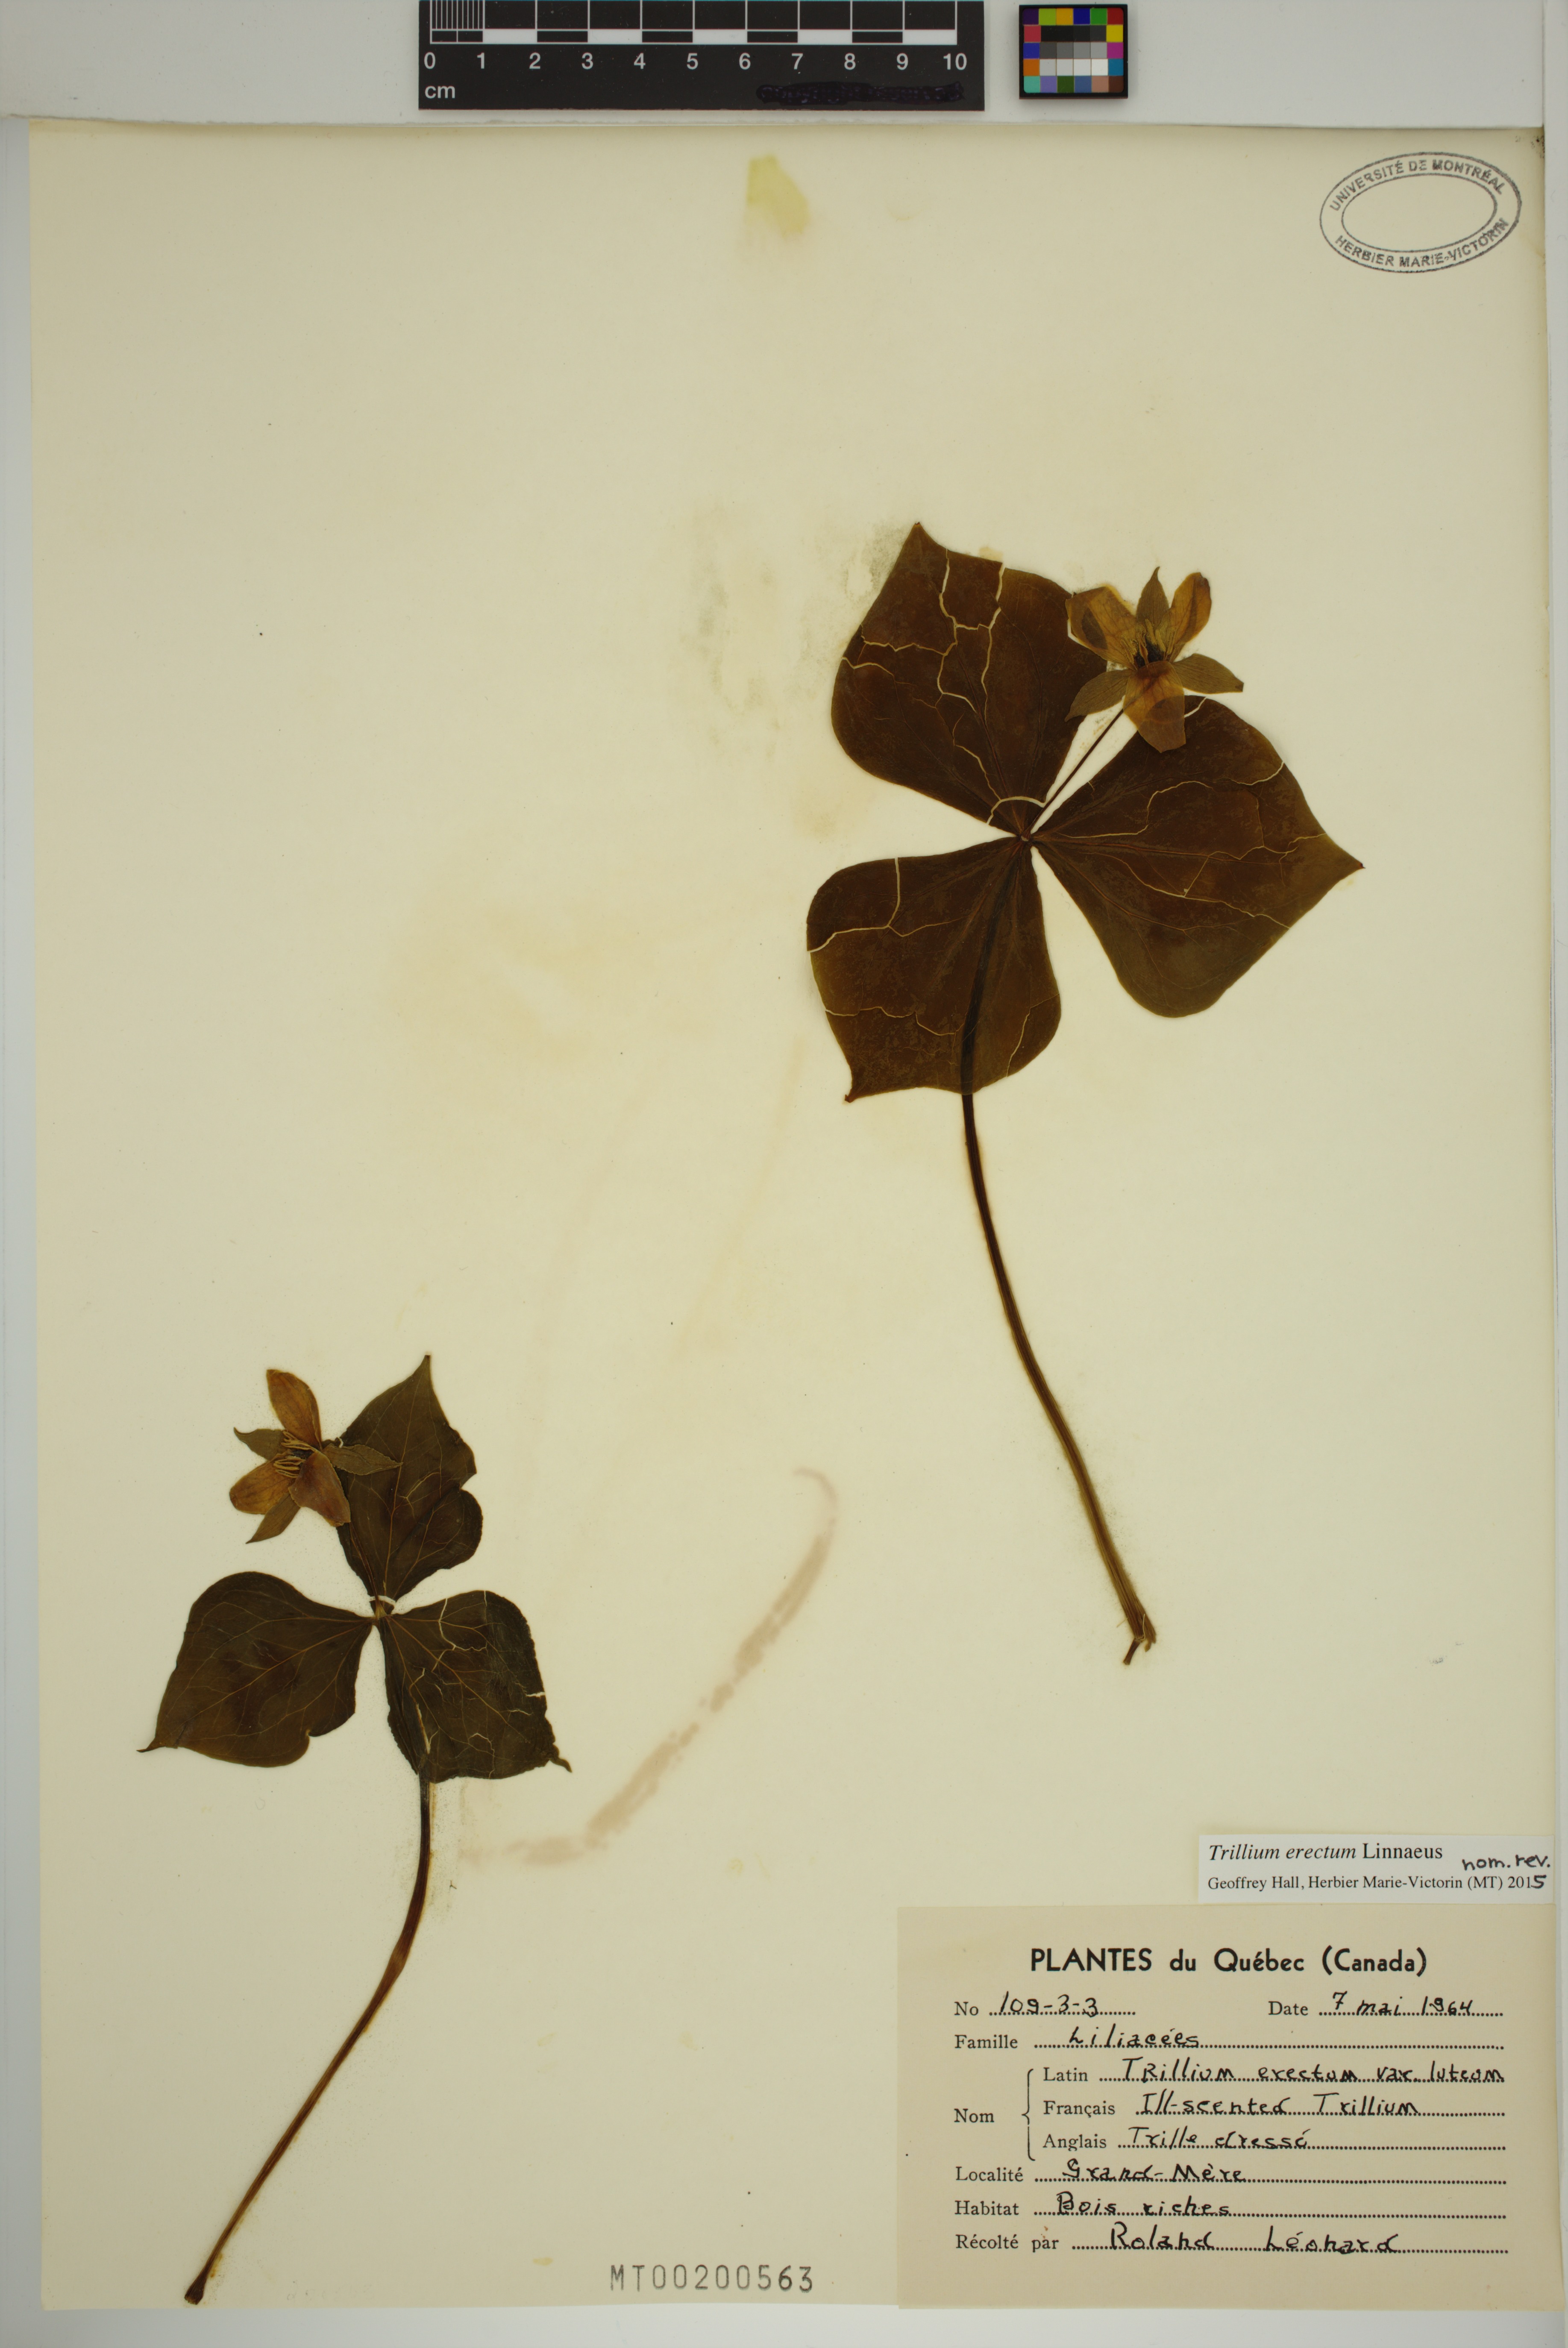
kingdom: Plantae
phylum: Tracheophyta
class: Liliopsida
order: Liliales
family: Melanthiaceae
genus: Trillium
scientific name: Trillium erectum
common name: Purple trillium
